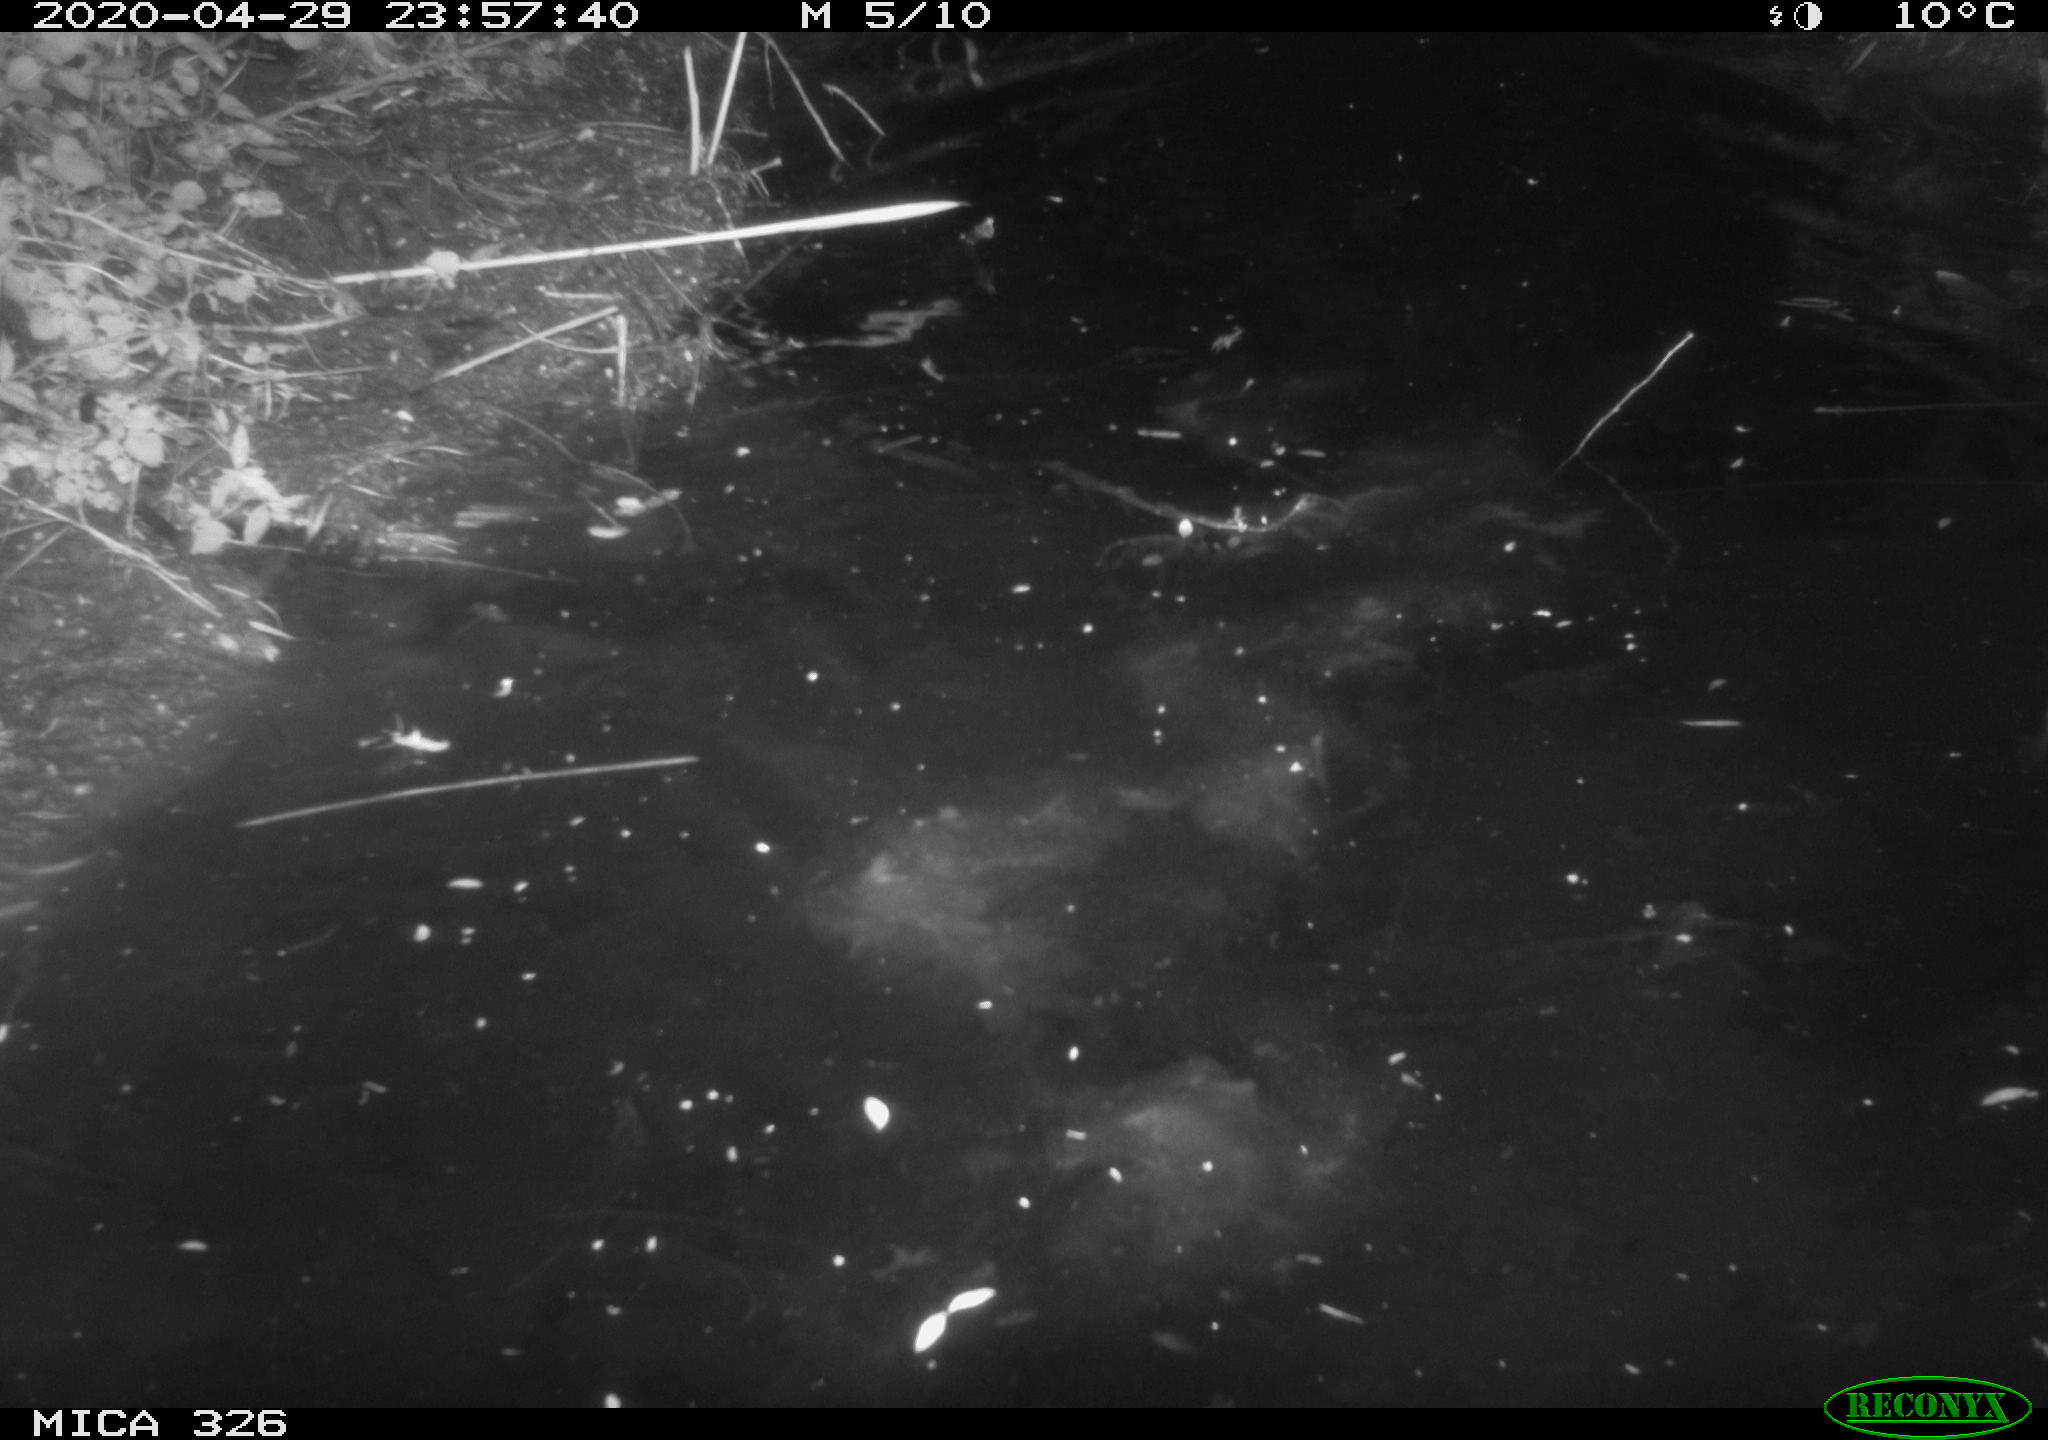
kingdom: Animalia
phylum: Chordata
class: Mammalia
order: Rodentia
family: Cricetidae
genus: Ondatra
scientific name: Ondatra zibethicus
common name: Muskrat
